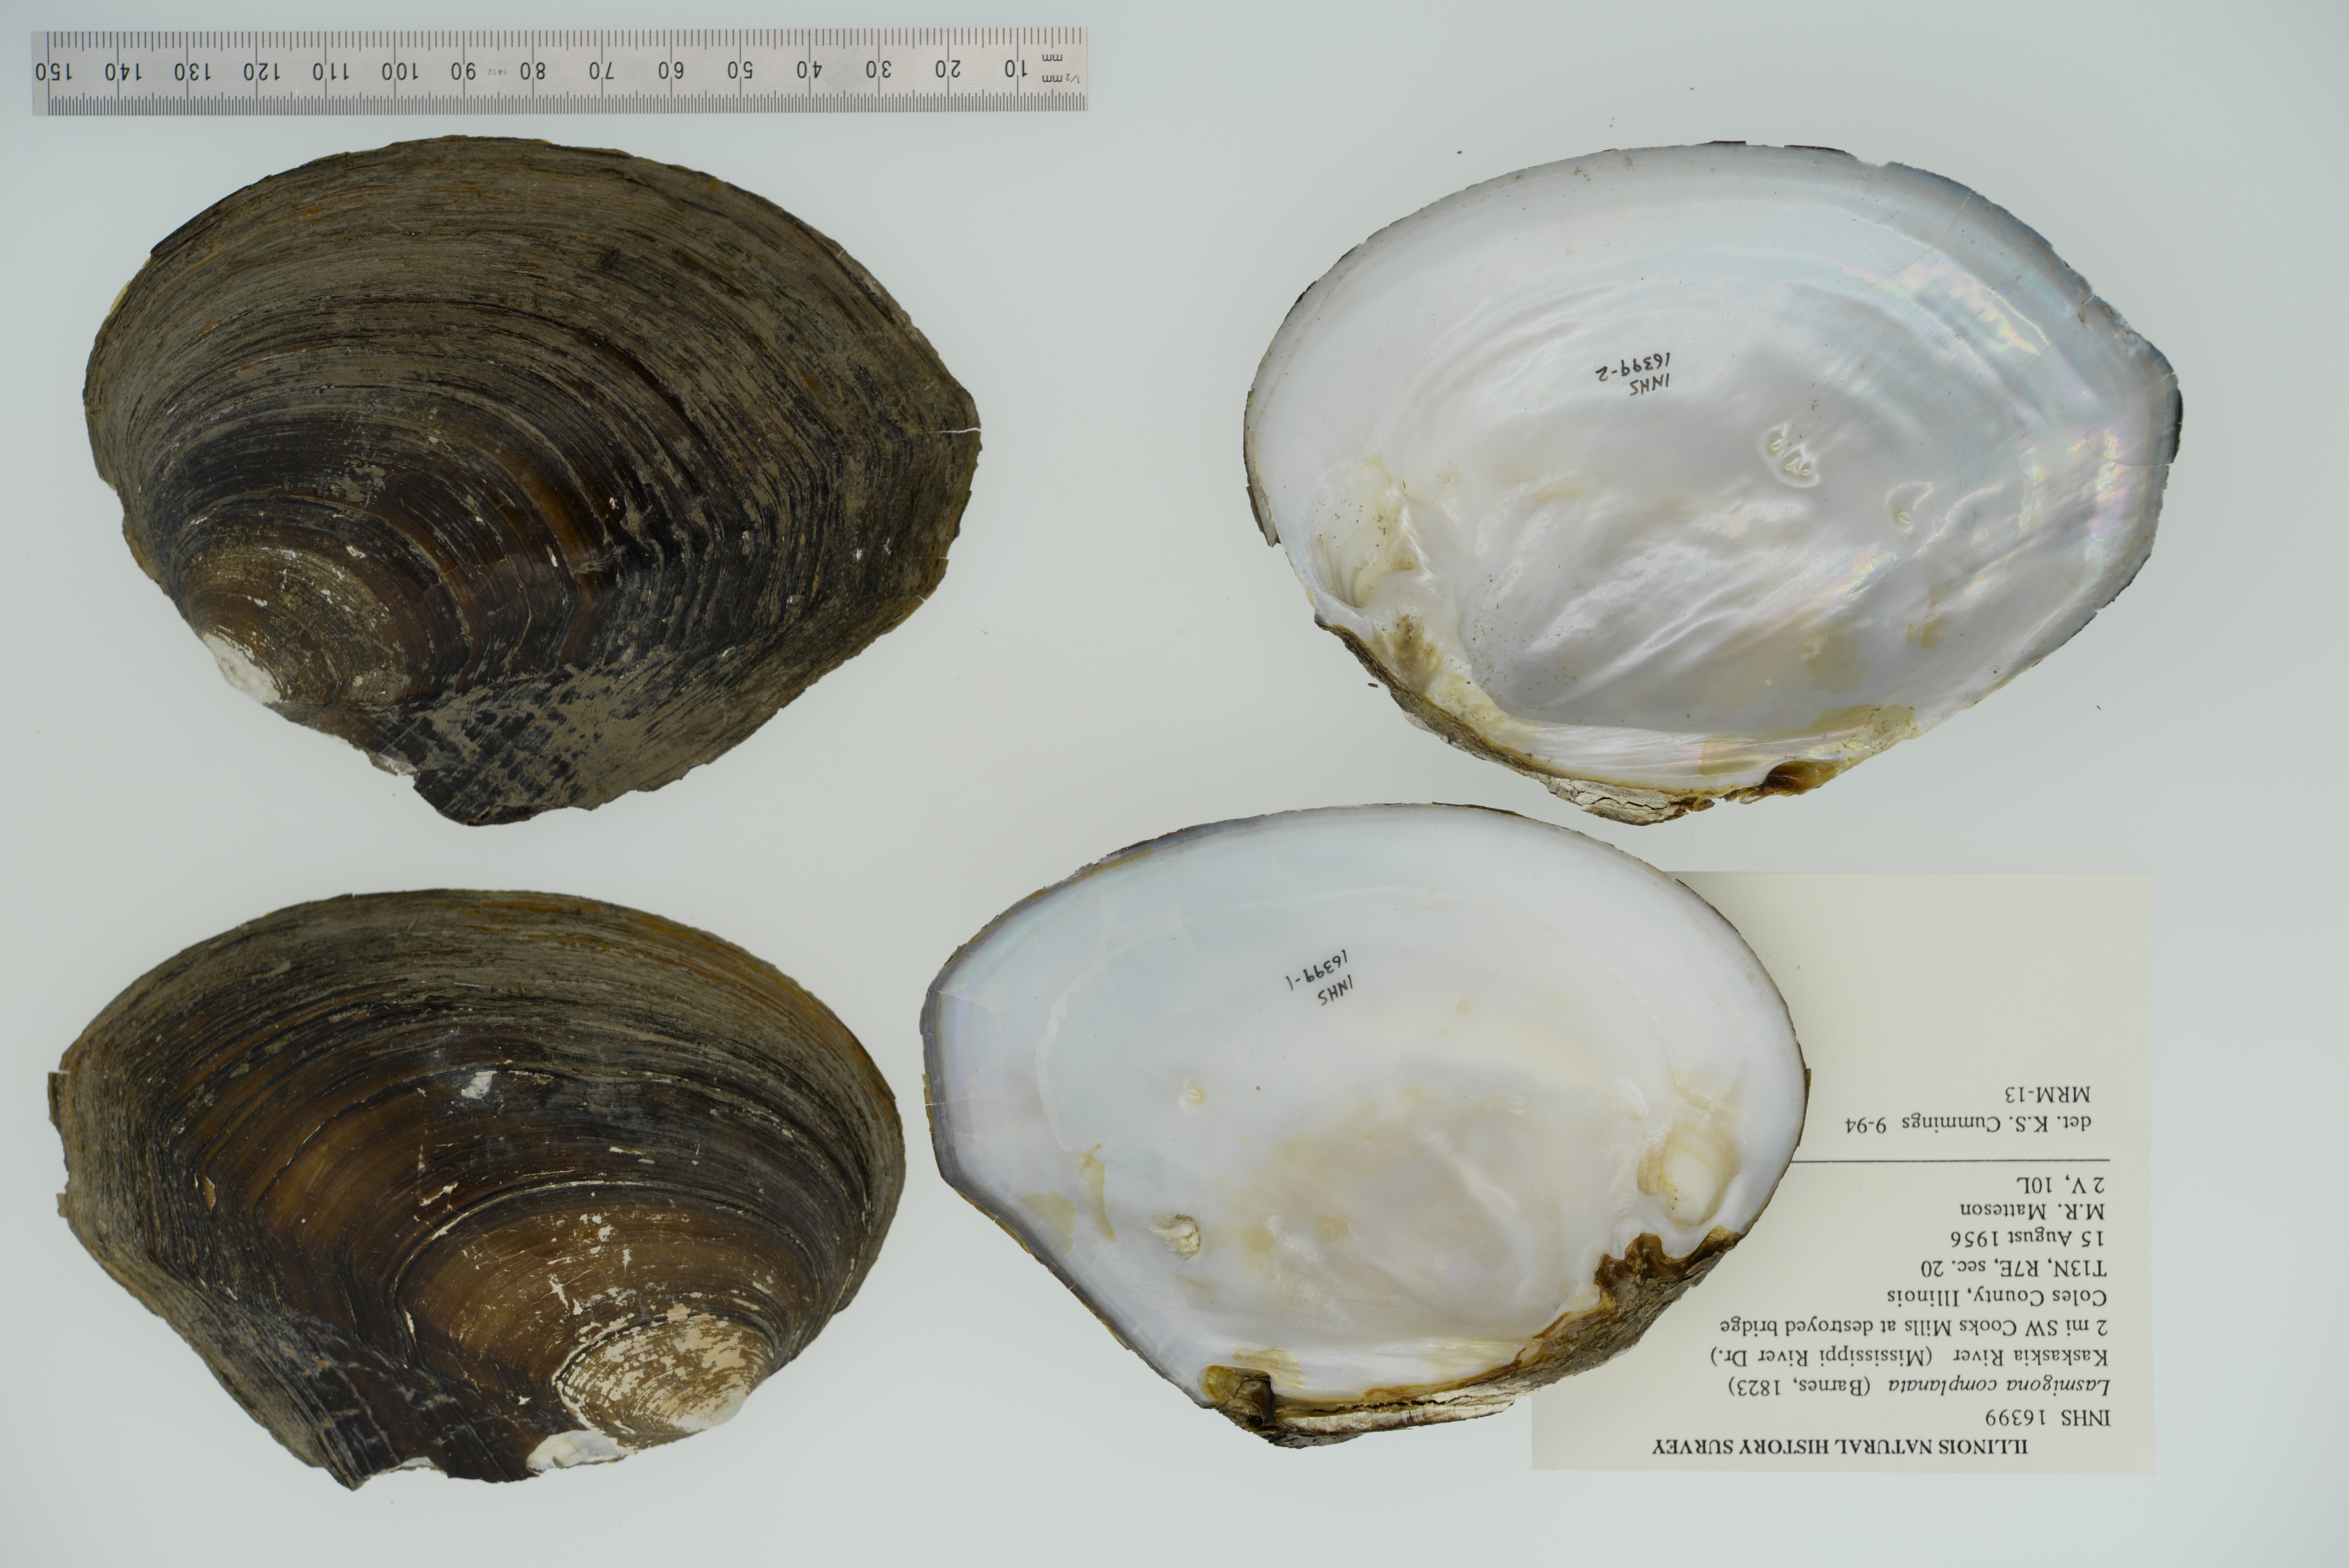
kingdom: Animalia
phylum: Mollusca
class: Bivalvia
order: Unionida
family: Unionidae
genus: Lasmigona
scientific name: Lasmigona complanata
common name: White heelsplitter
